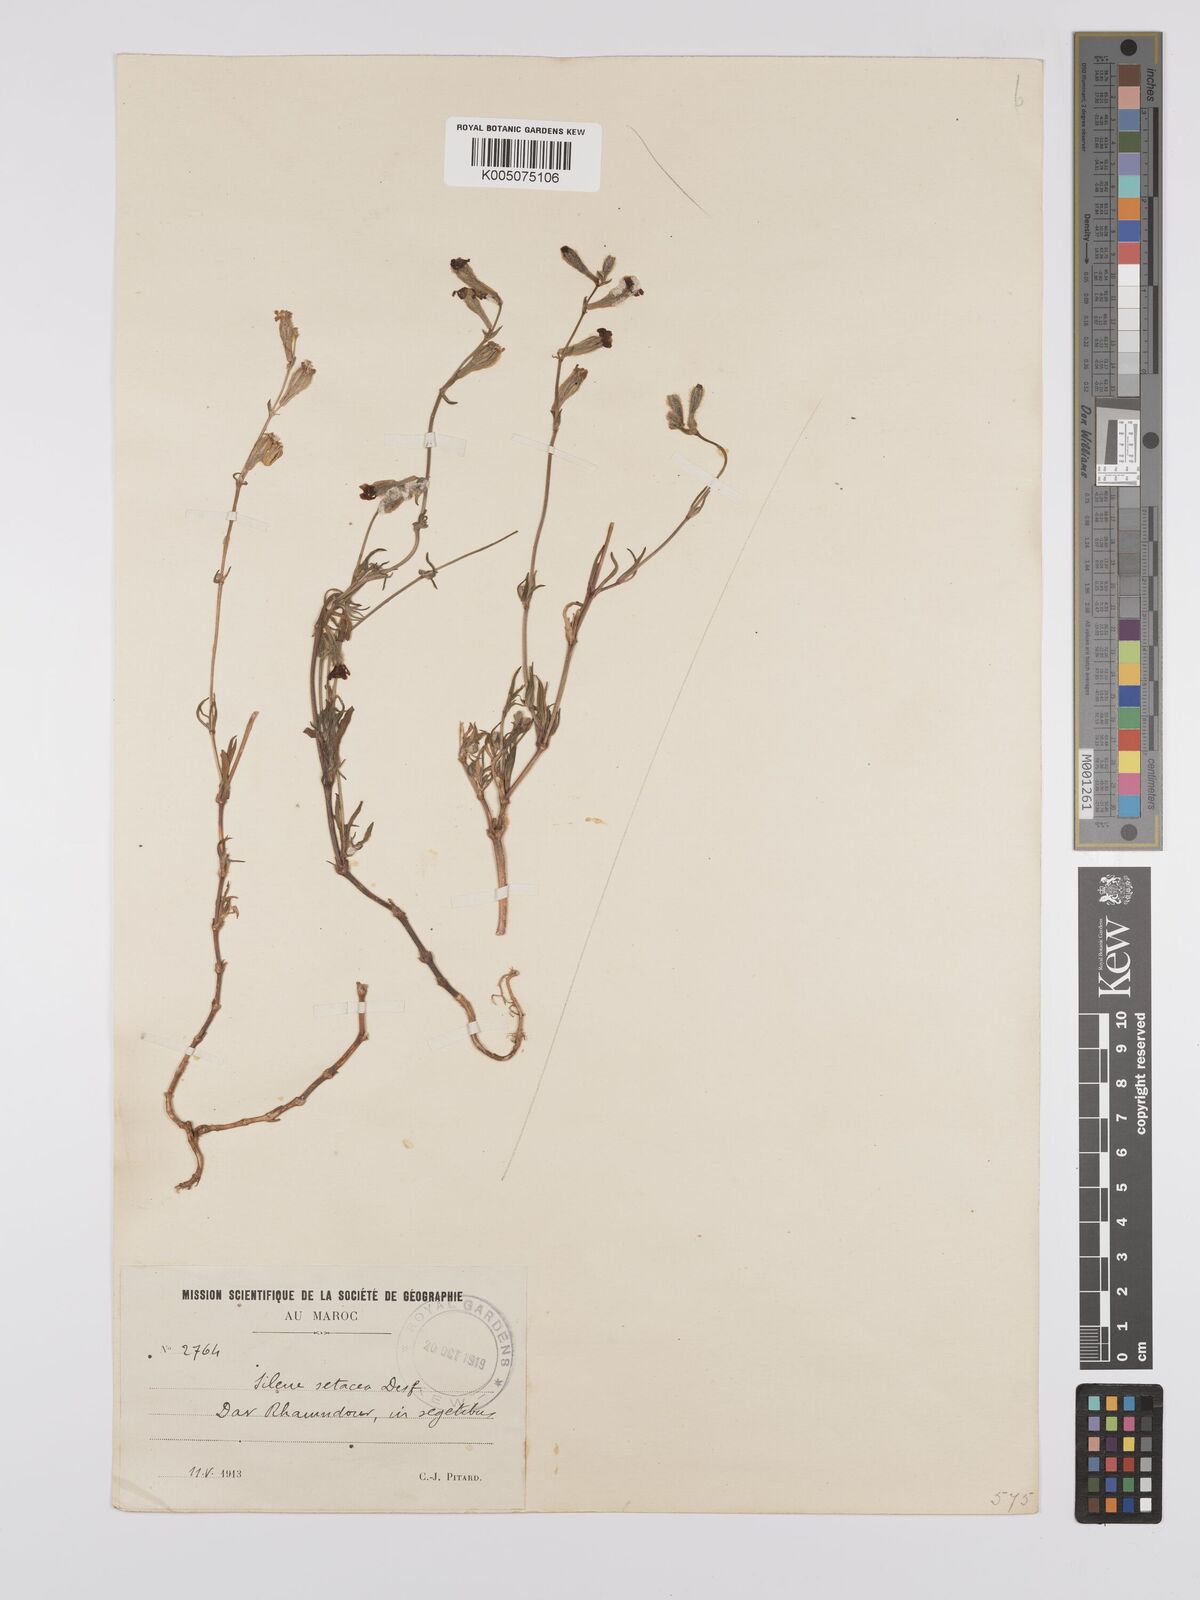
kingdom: Plantae
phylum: Tracheophyta
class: Magnoliopsida
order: Caryophyllales
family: Caryophyllaceae
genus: Silene
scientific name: Silene nicaeensis
